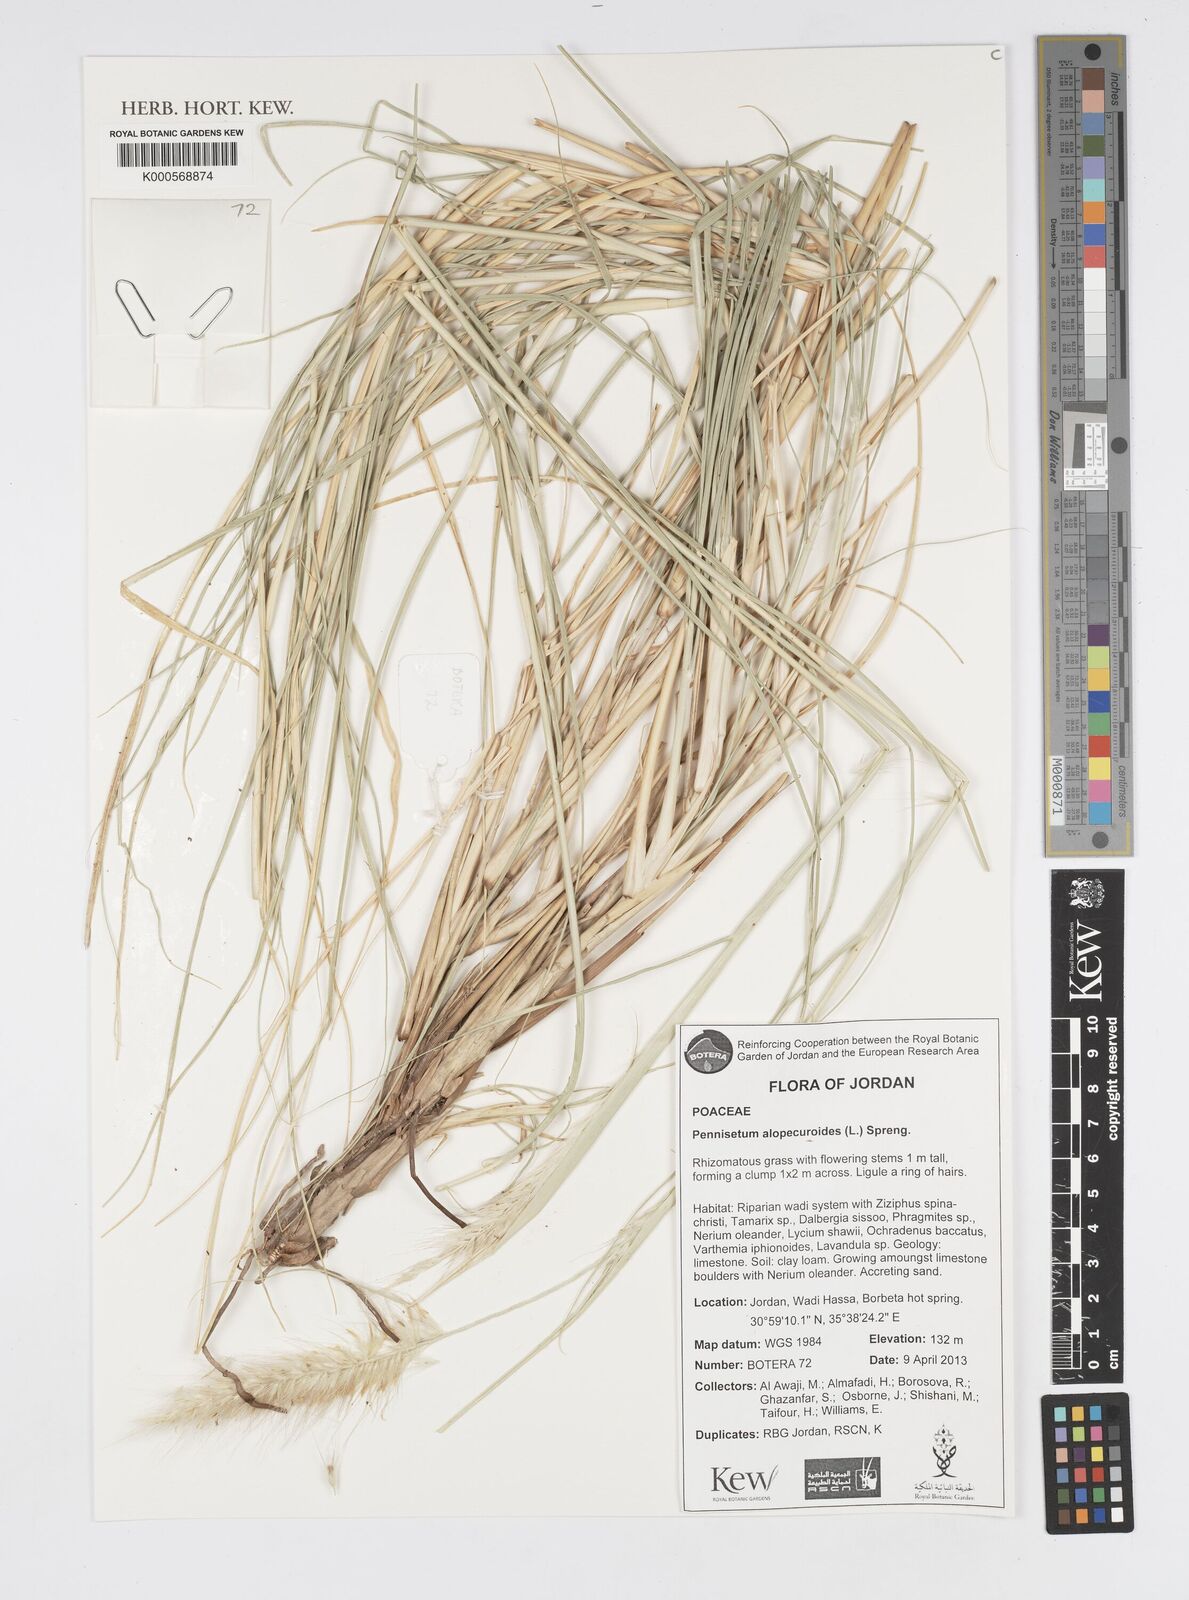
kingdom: Plantae
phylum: Tracheophyta
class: Liliopsida
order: Poales
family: Poaceae
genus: Cenchrus
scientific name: Cenchrus alopecuroides
